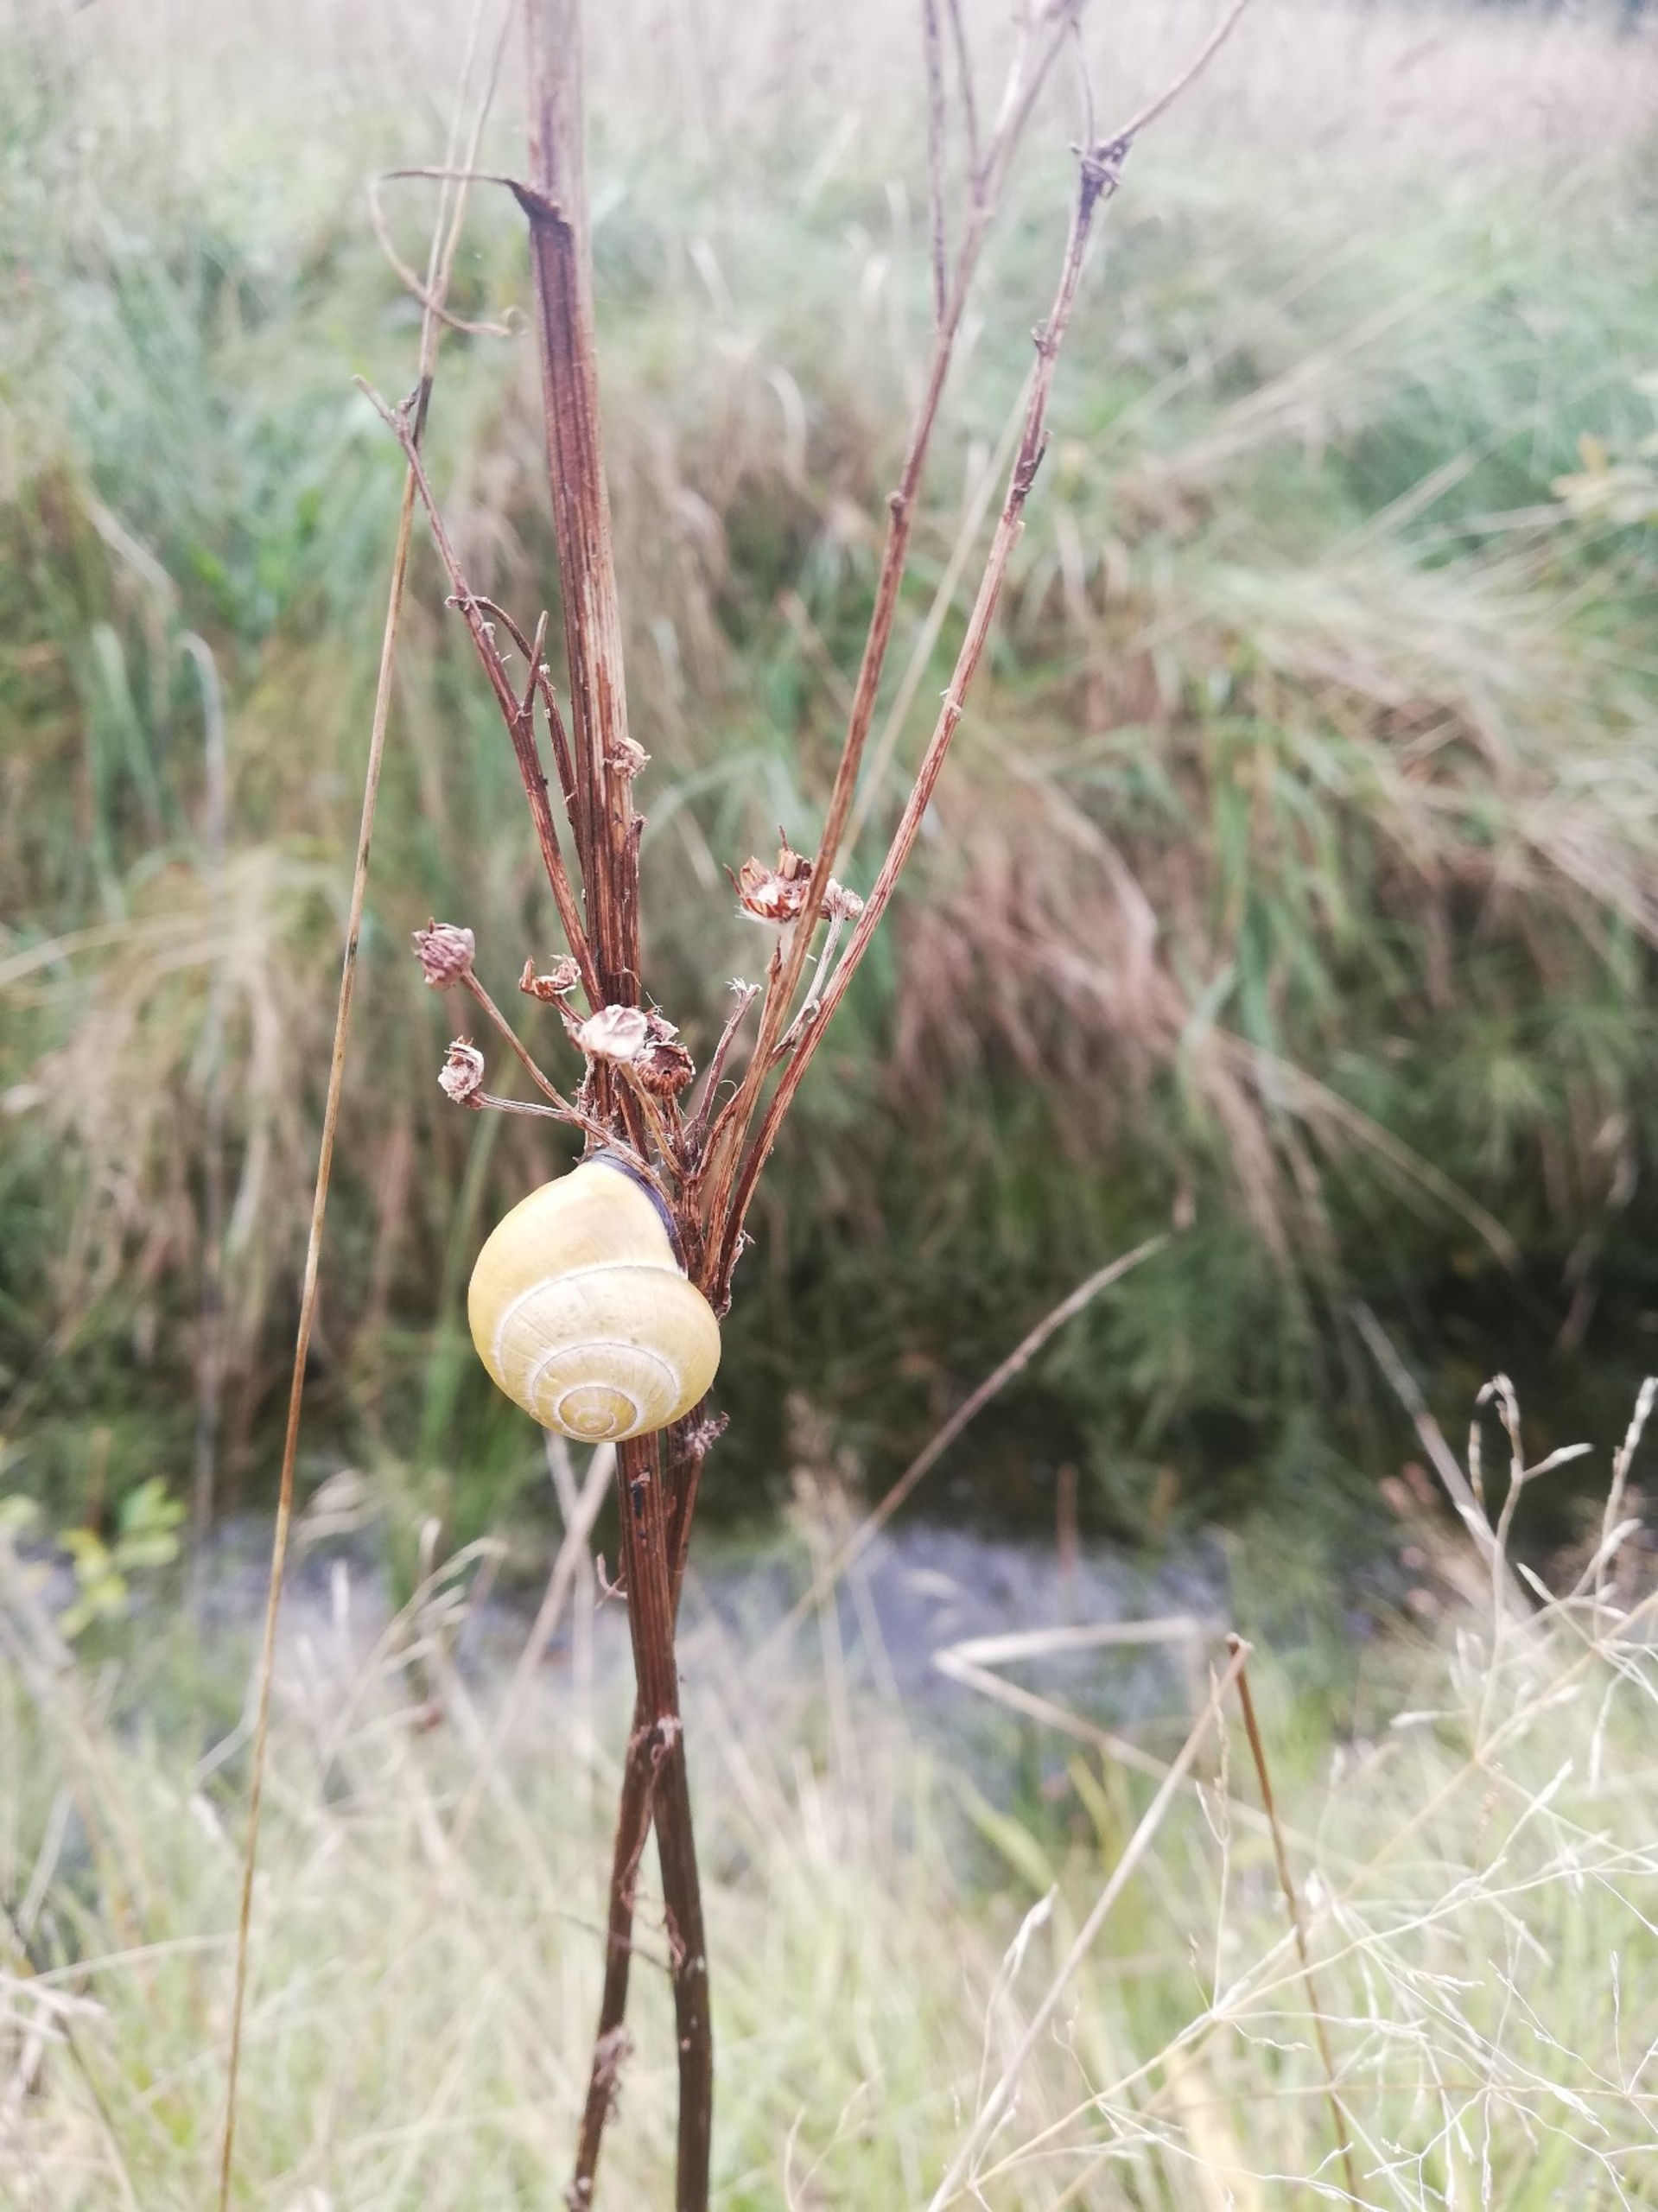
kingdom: Animalia
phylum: Mollusca
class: Gastropoda
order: Stylommatophora
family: Helicidae
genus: Cepaea
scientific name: Cepaea nemoralis
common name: Lundsnegl
